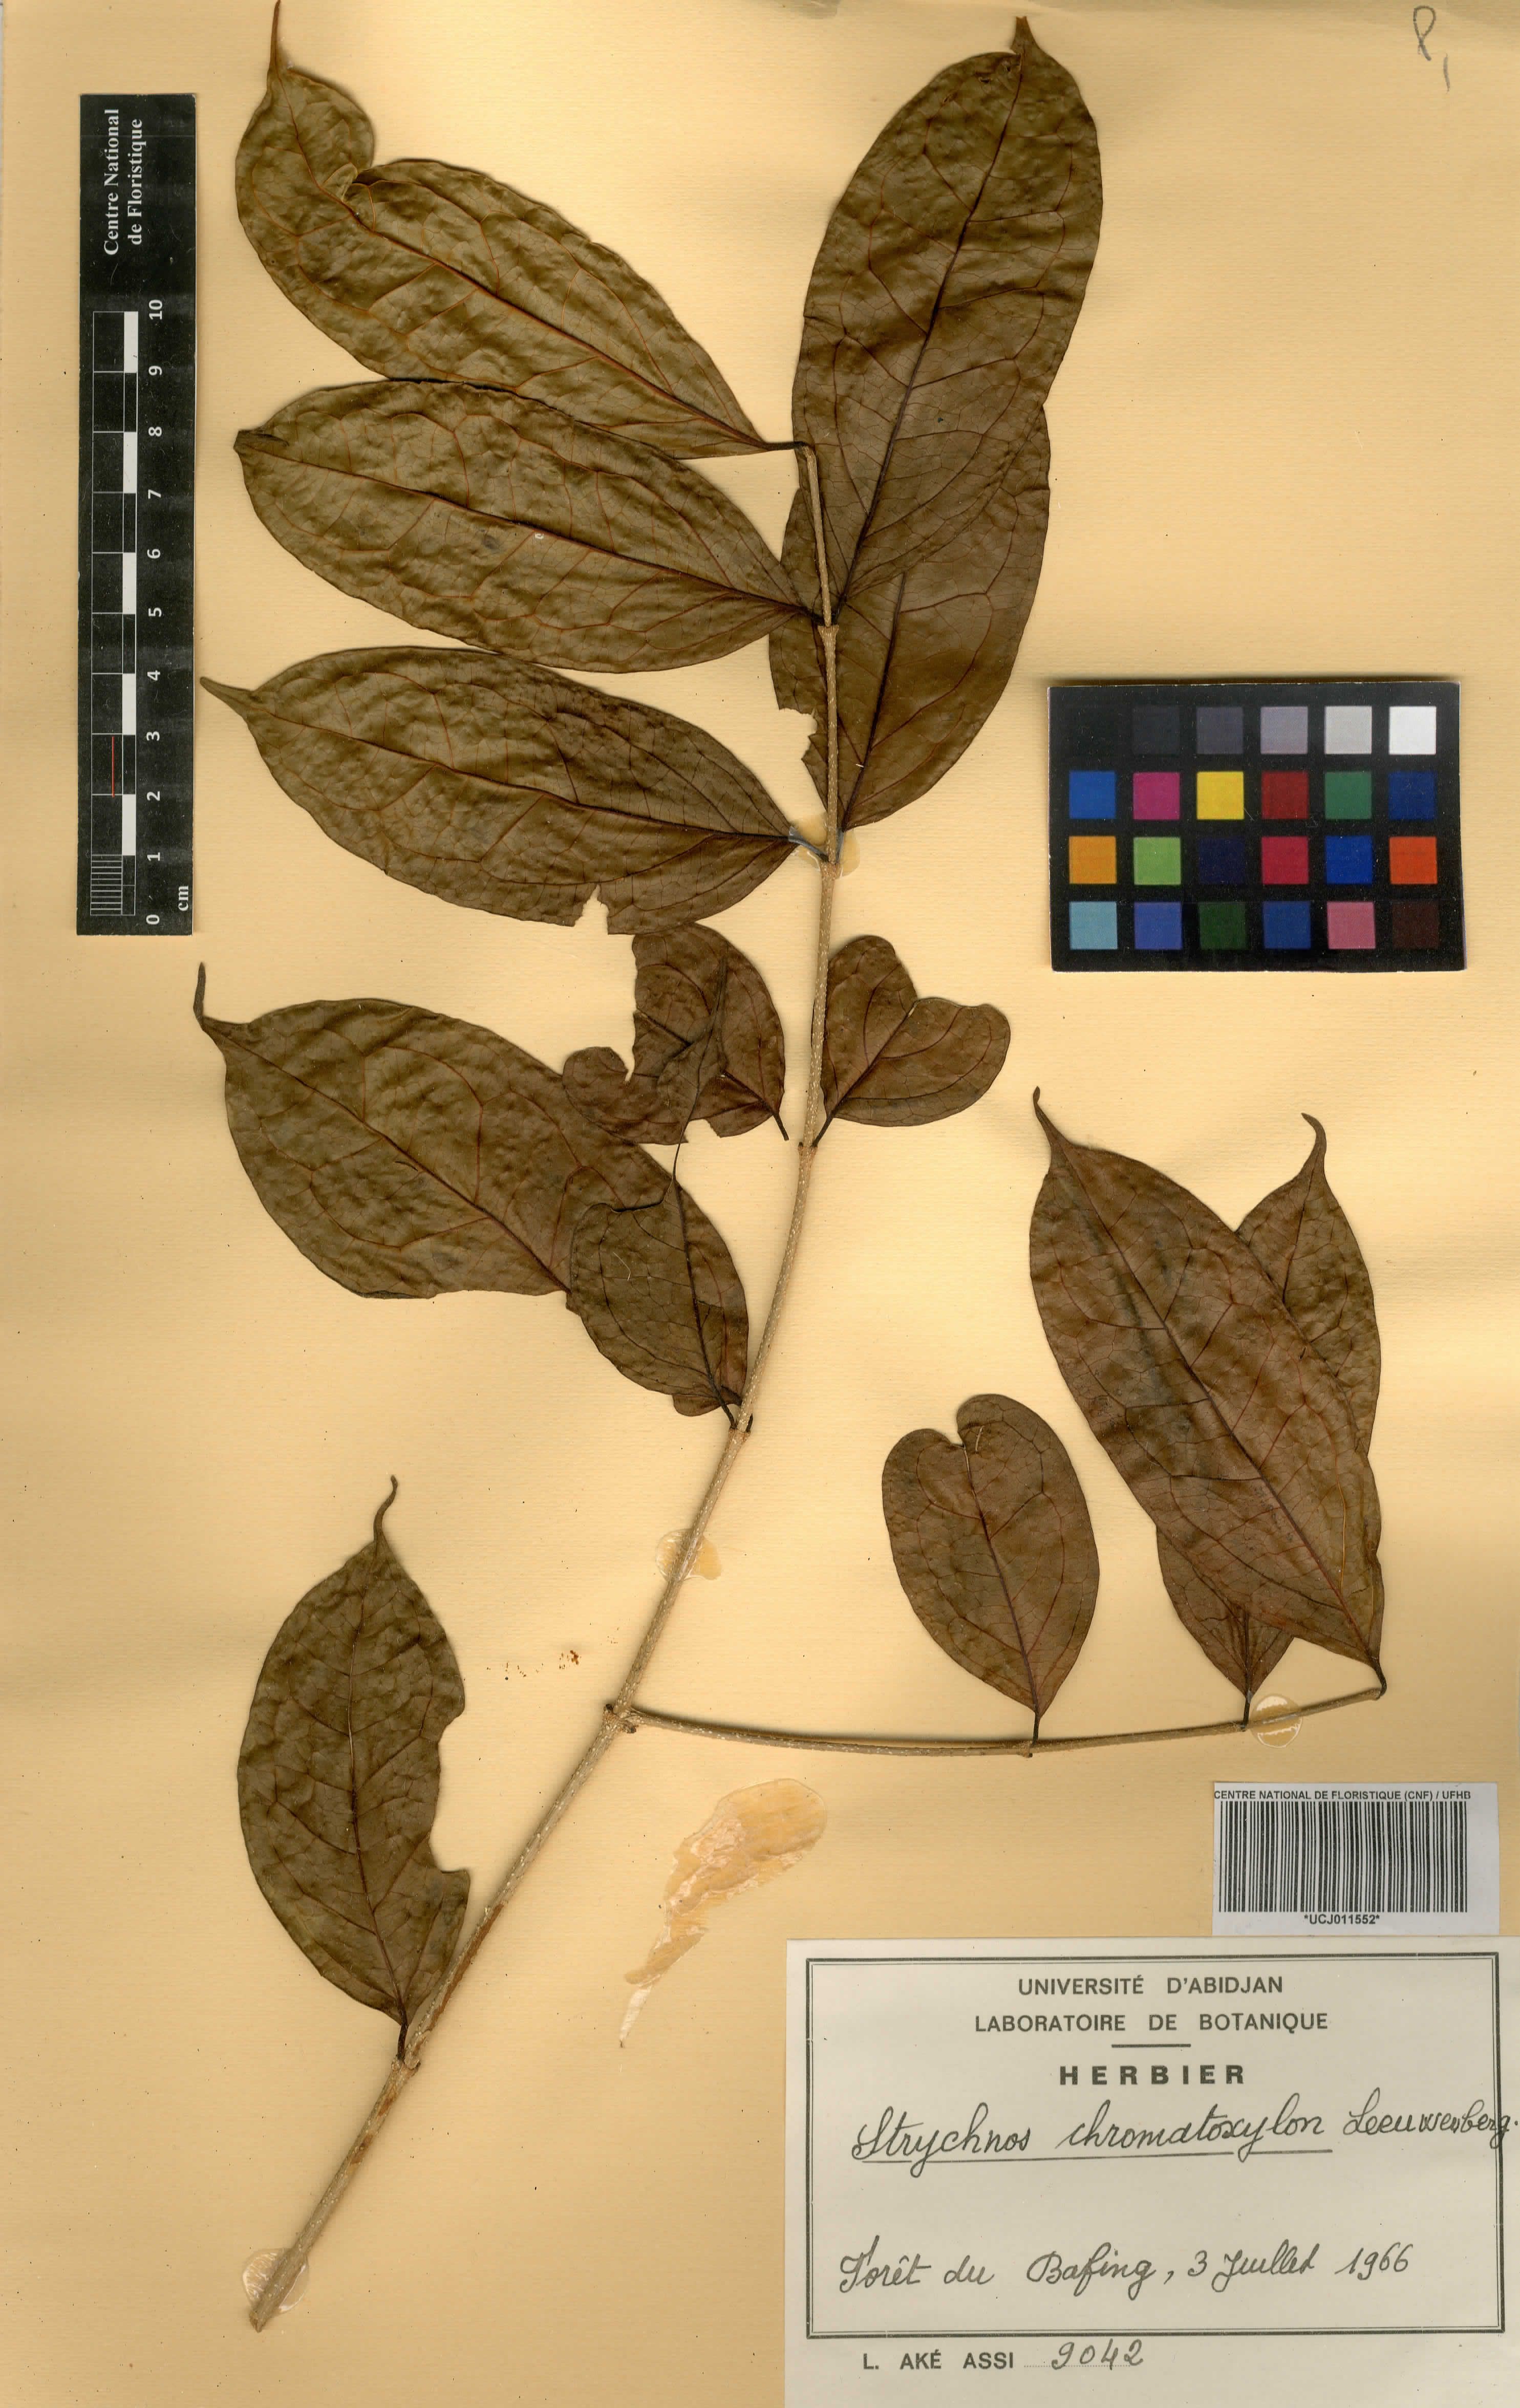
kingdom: Plantae
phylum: Tracheophyta
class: Magnoliopsida
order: Gentianales
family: Loganiaceae
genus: Strychnos
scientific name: Strychnos chromatoxylon
